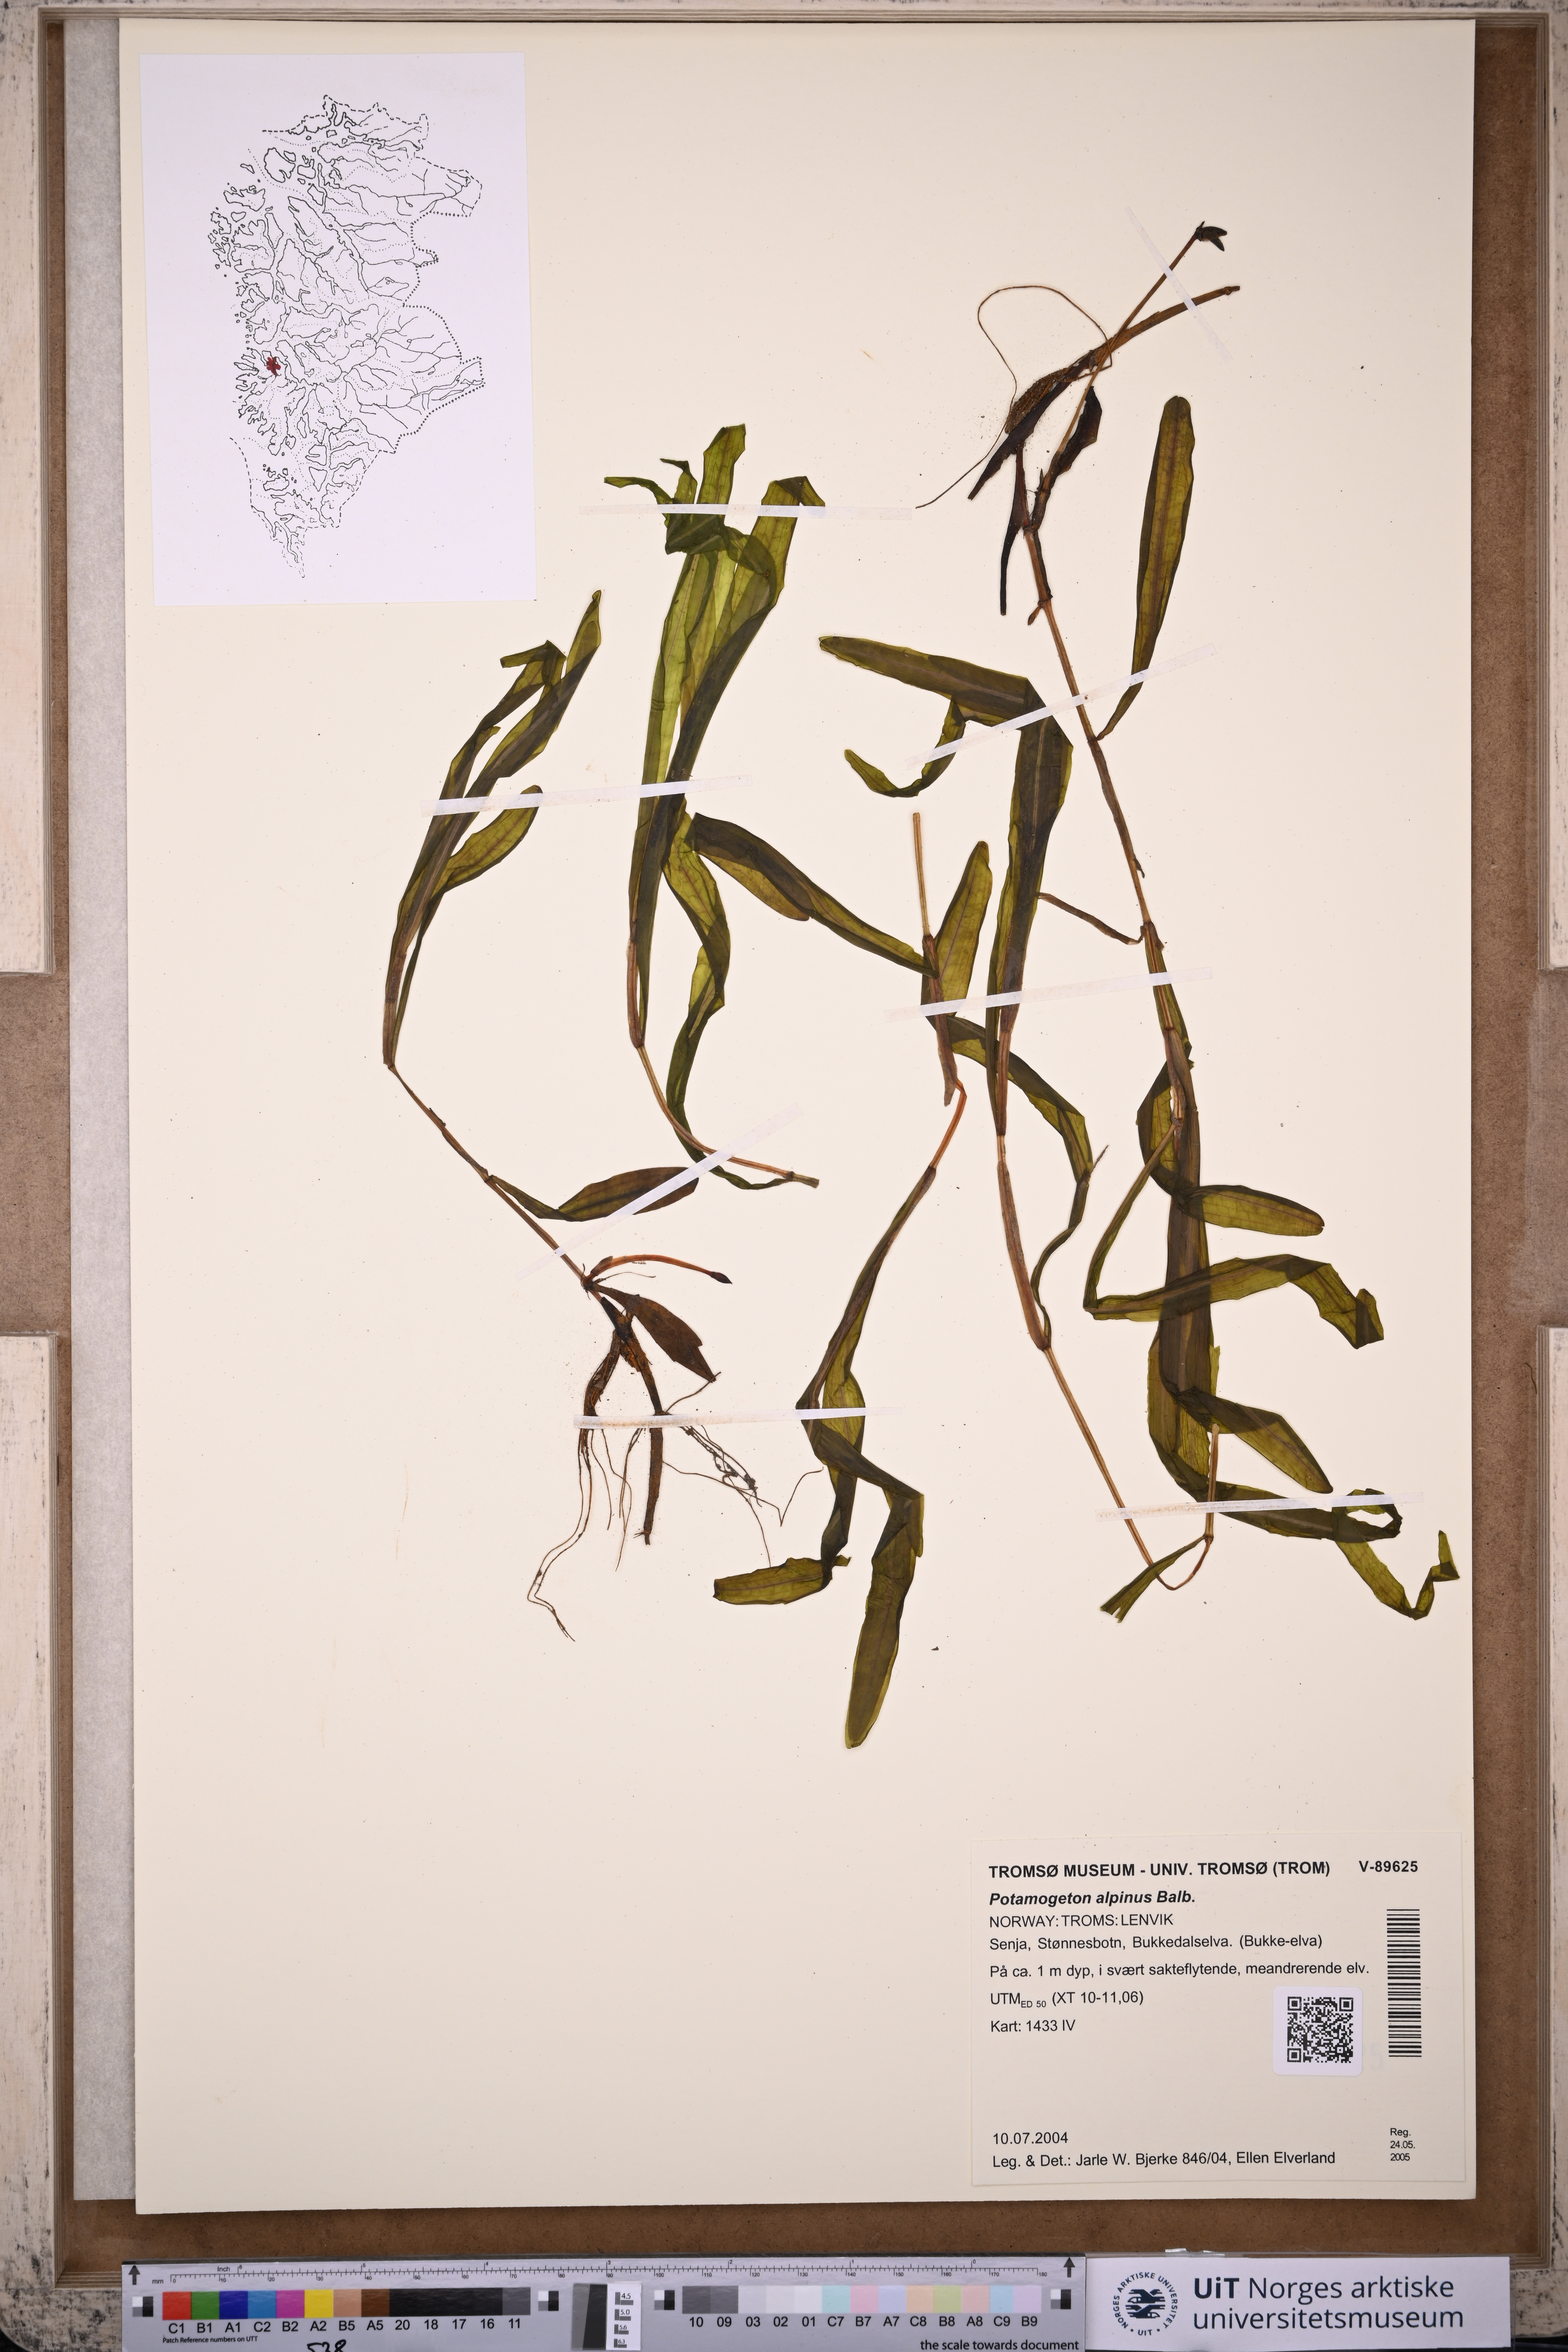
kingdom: Plantae
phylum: Tracheophyta
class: Liliopsida
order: Alismatales
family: Potamogetonaceae
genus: Potamogeton
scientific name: Potamogeton alpinus
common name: Red pondweed
